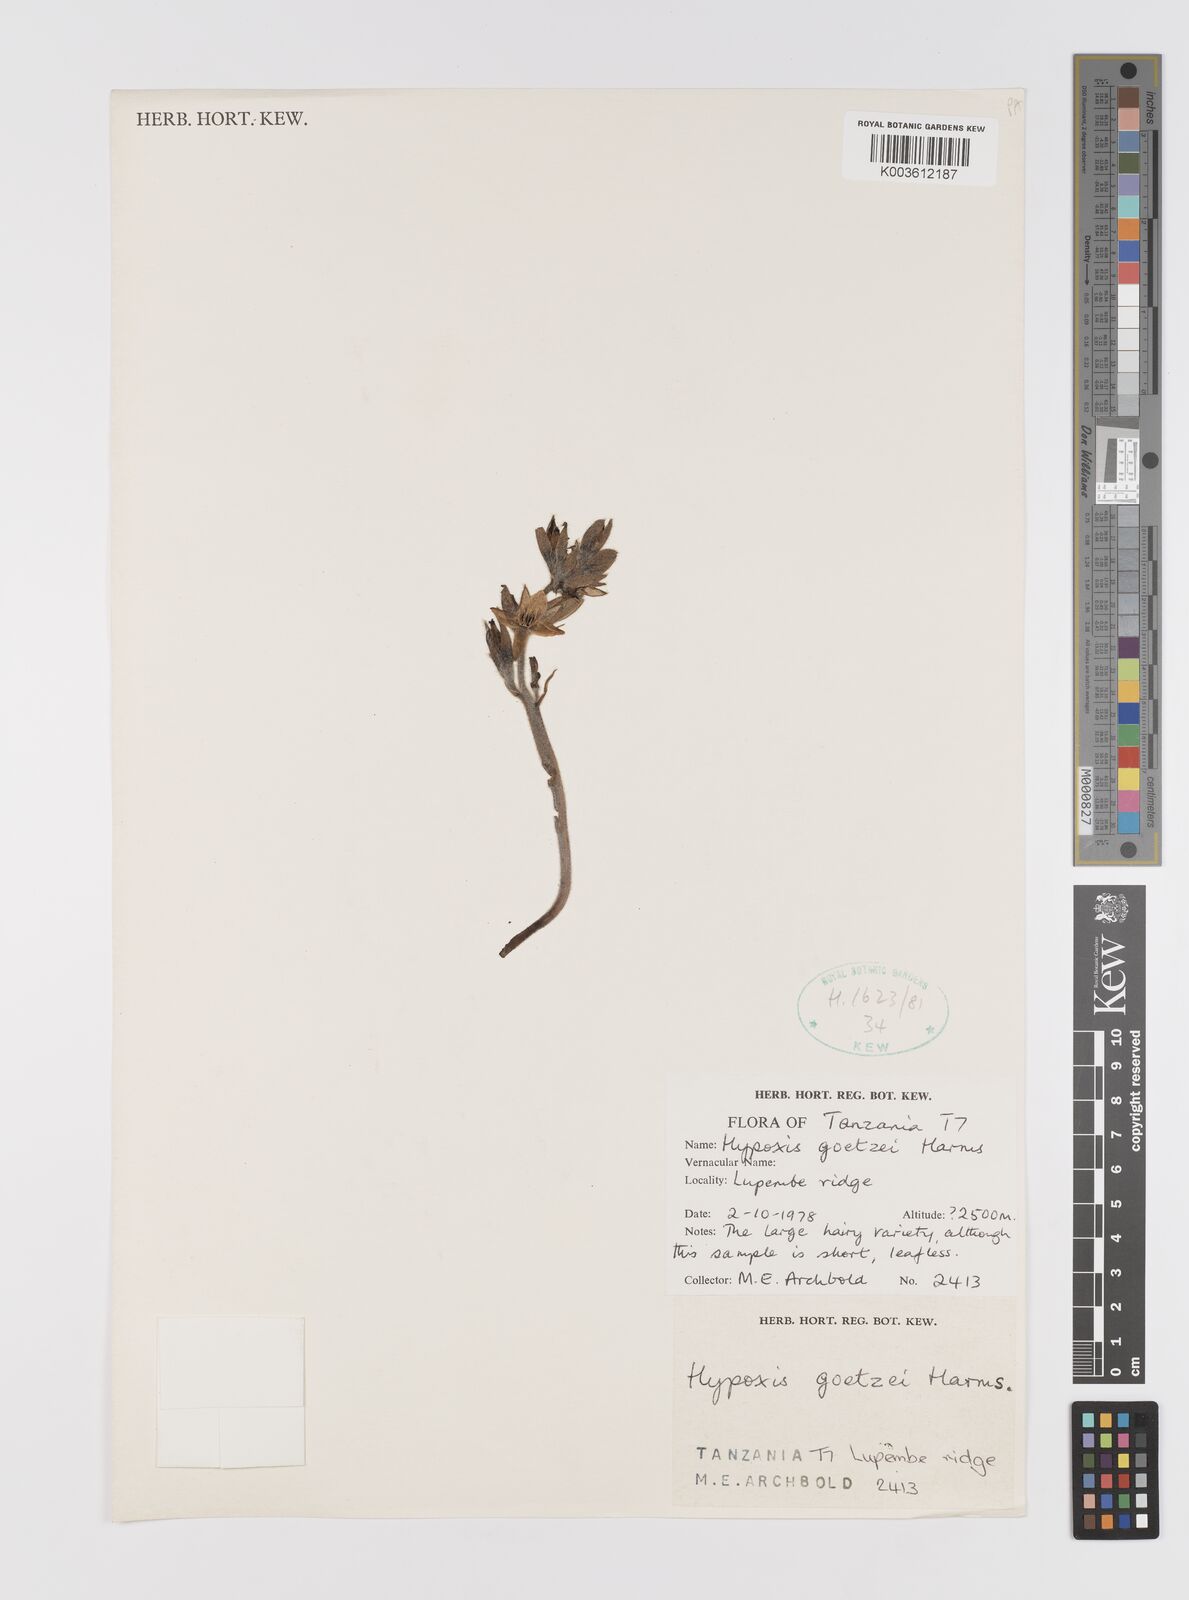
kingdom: Plantae
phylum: Tracheophyta
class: Liliopsida
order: Asparagales
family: Hypoxidaceae
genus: Hypoxis
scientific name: Hypoxis
